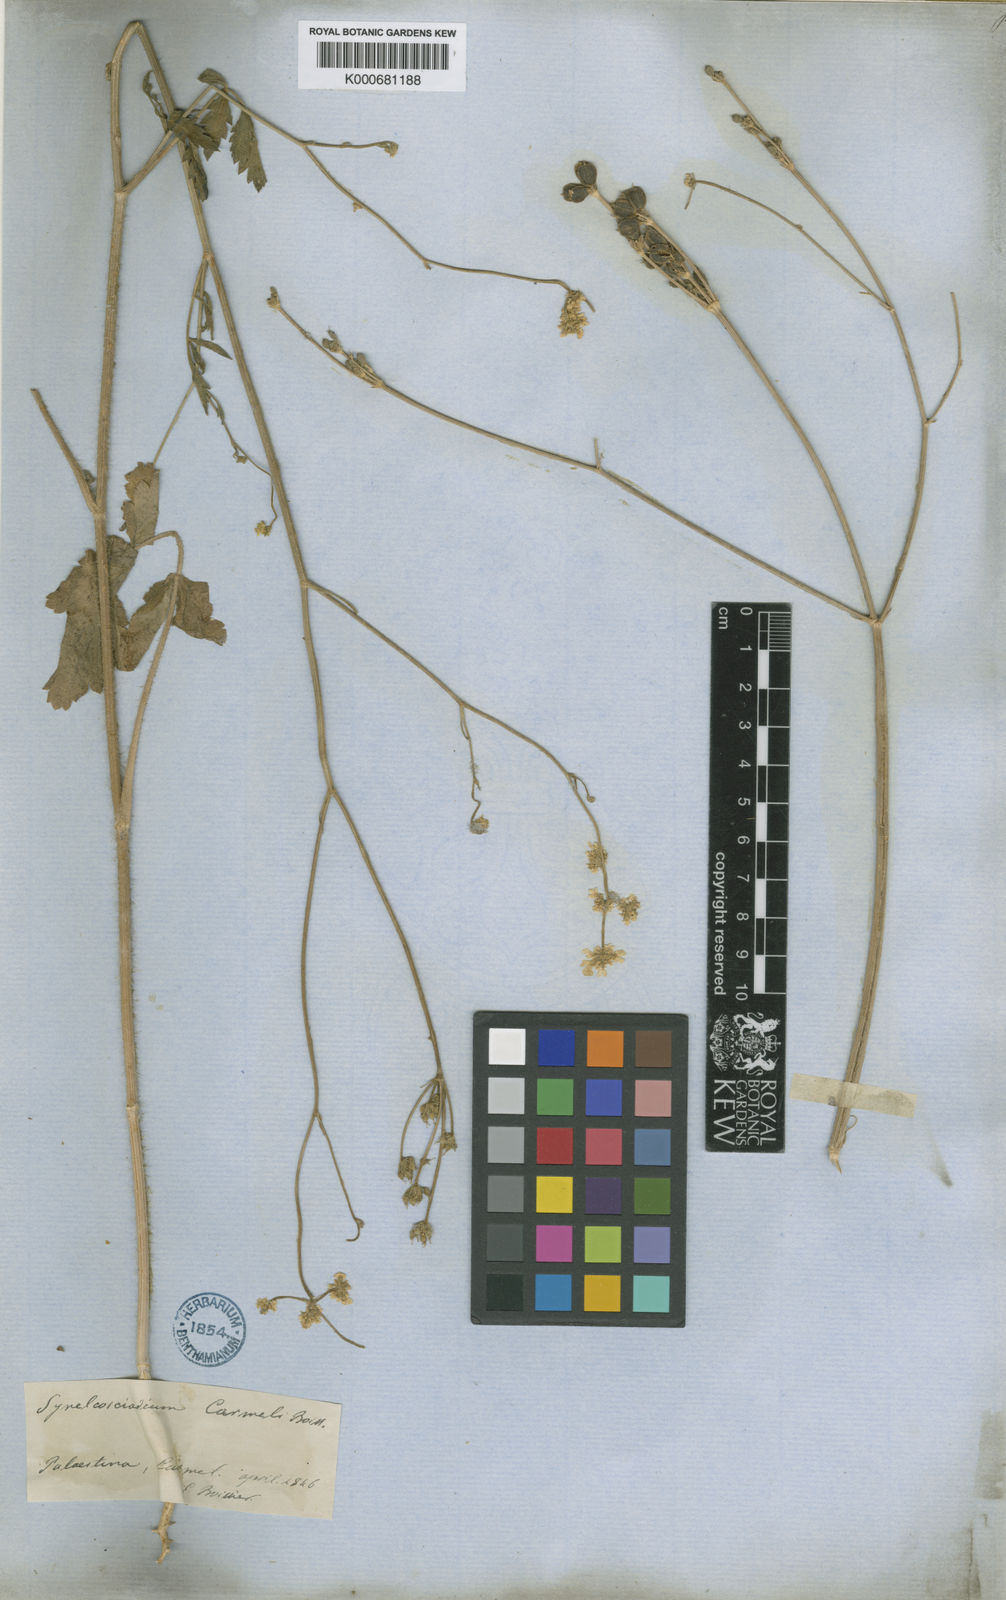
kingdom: Plantae
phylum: Tracheophyta
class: Magnoliopsida
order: Apiales
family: Apiaceae
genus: Synelcosciadium
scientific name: Synelcosciadium carmeli
